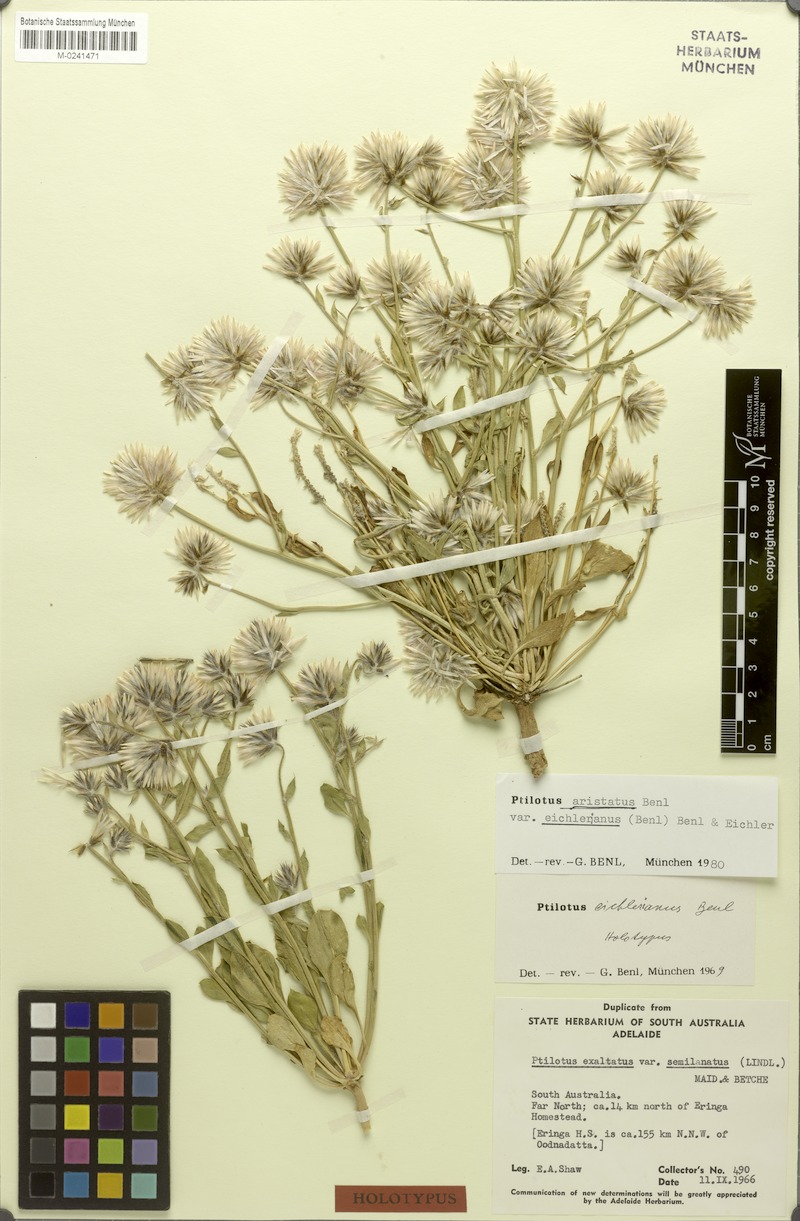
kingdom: Plantae
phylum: Tracheophyta
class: Magnoliopsida
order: Caryophyllales
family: Amaranthaceae
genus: Ptilotus
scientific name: Ptilotus aristatus
